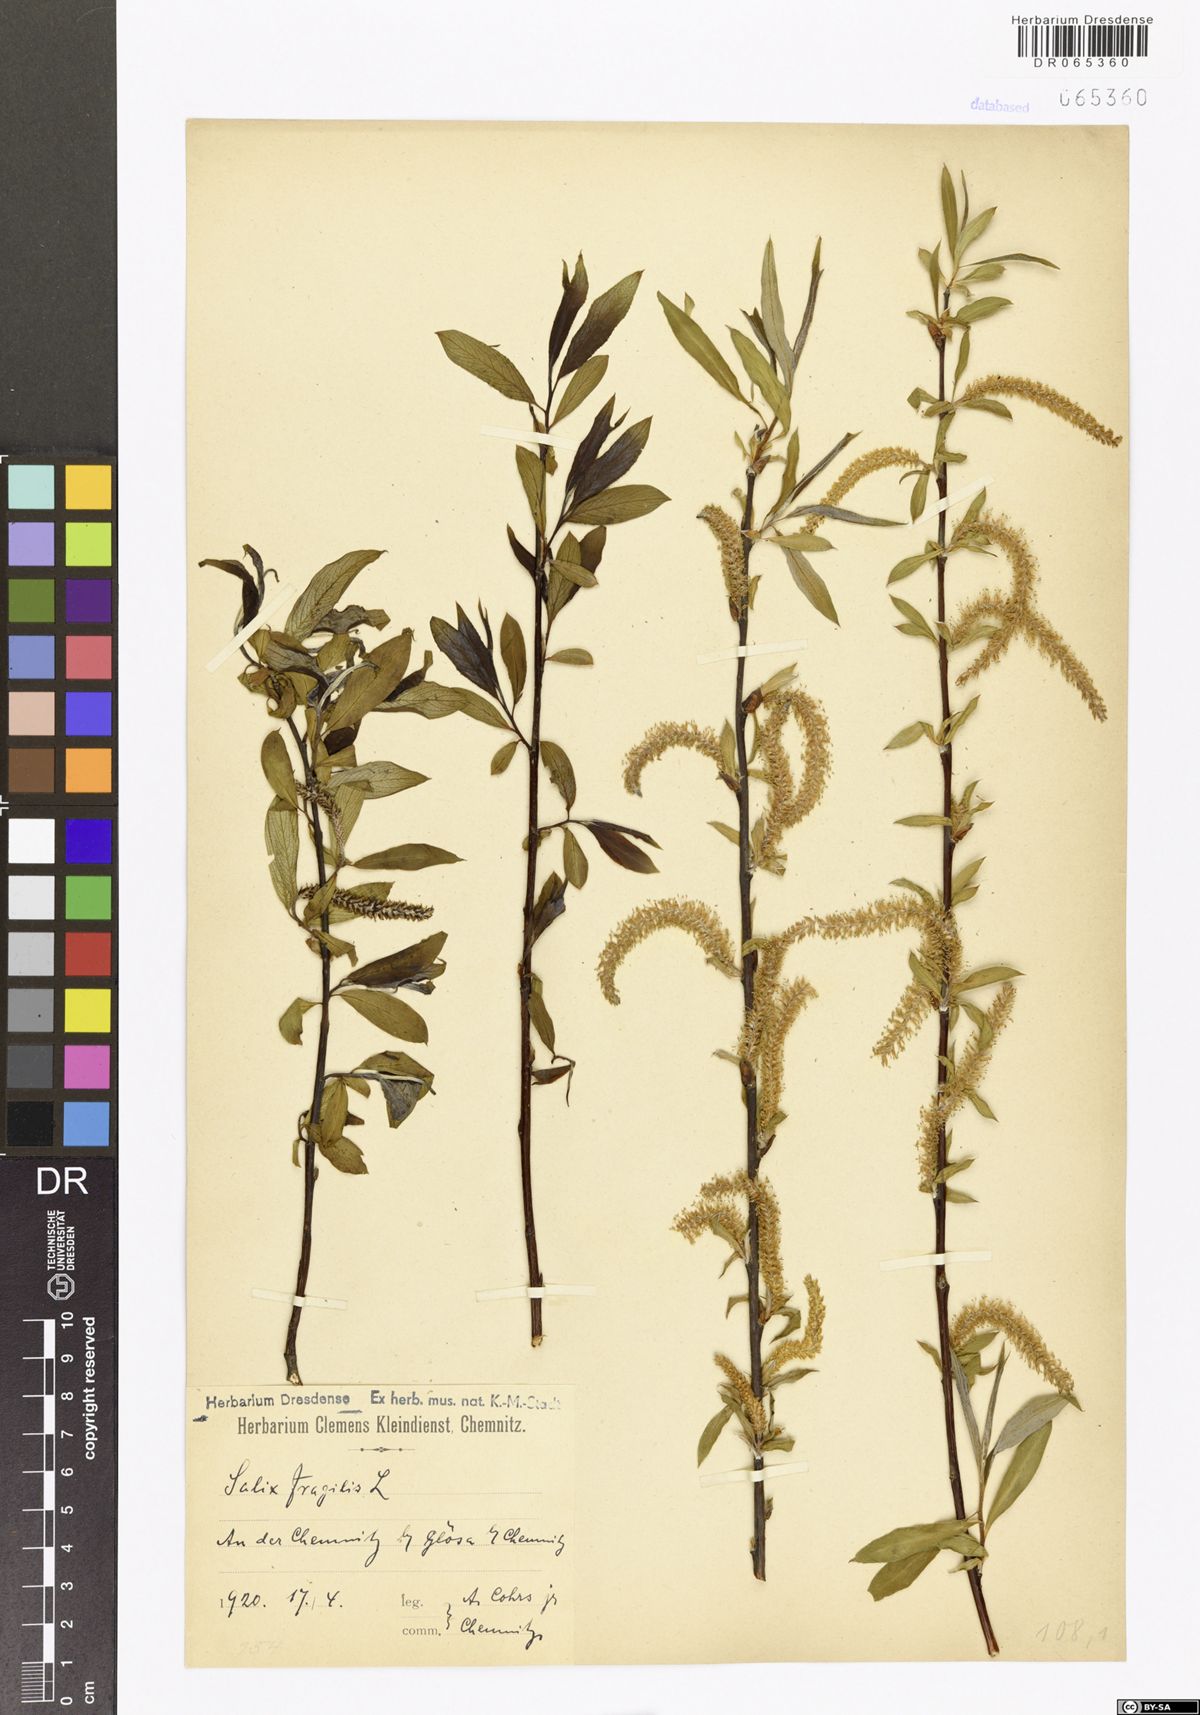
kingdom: Plantae
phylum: Tracheophyta
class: Magnoliopsida
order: Malpighiales
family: Salicaceae
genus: Salix
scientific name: Salix fragilis
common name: Crack willow
